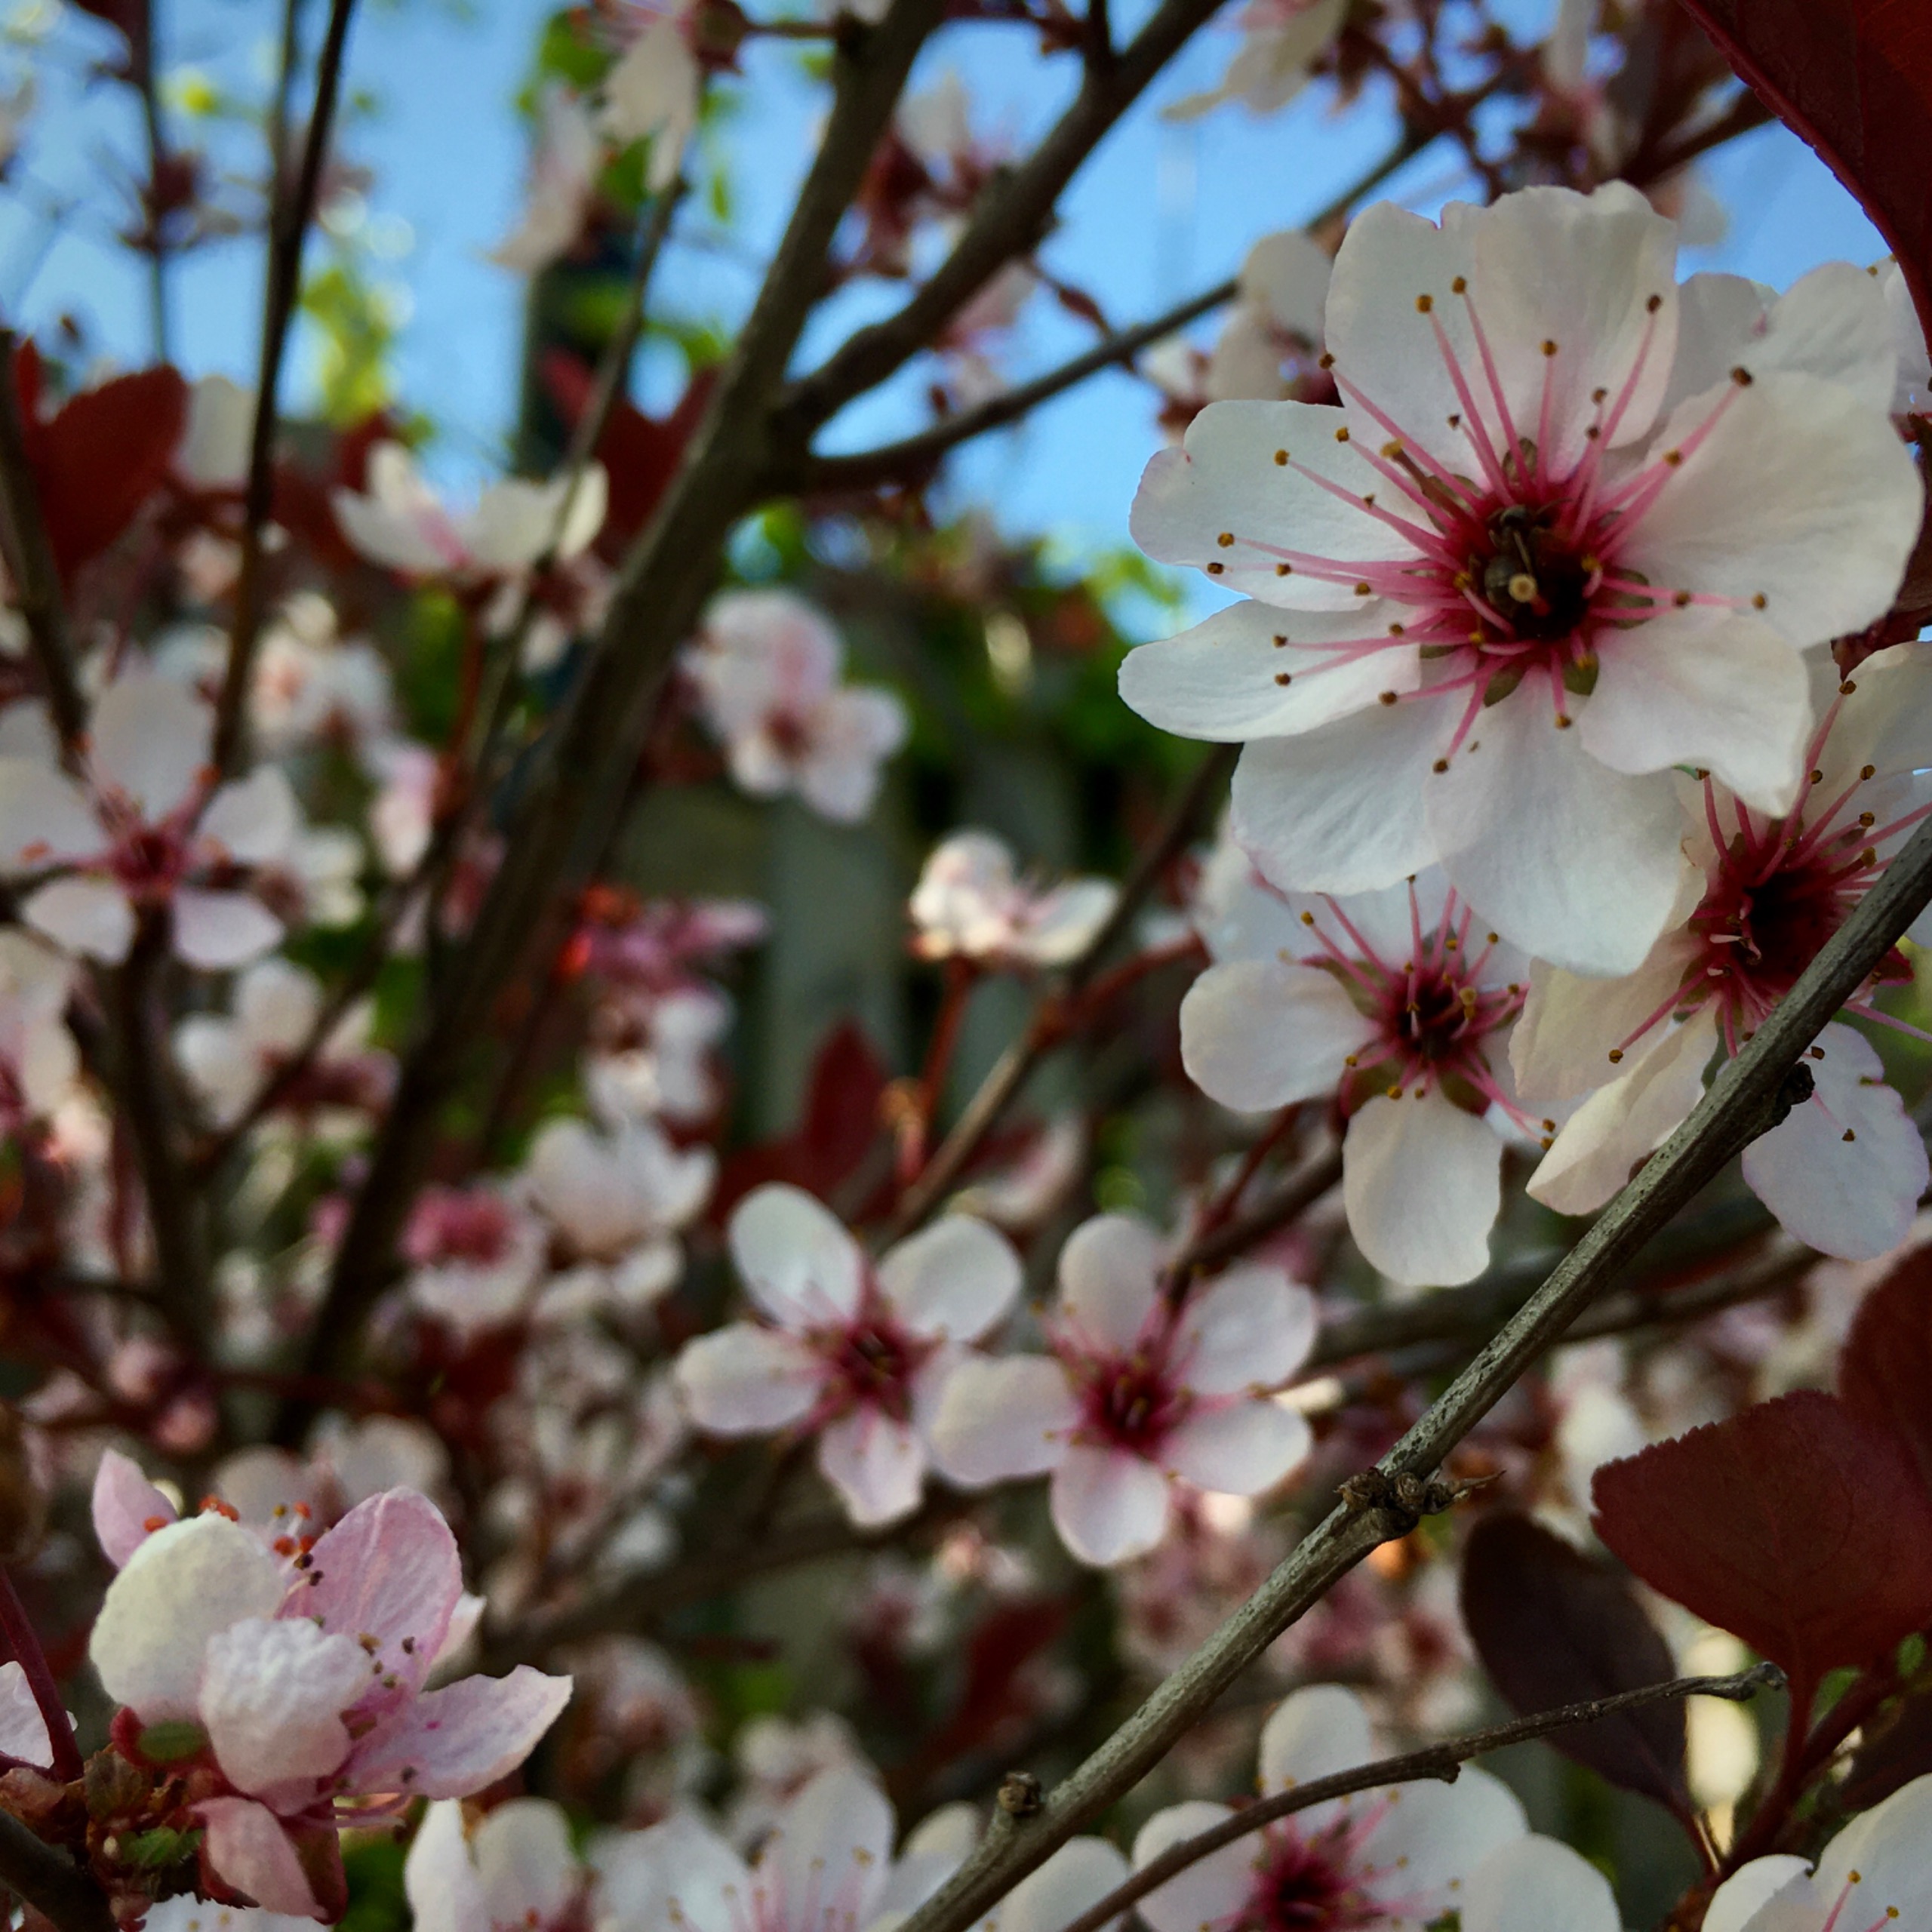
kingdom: Plantae
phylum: Tracheophyta
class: Magnoliopsida
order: Rosales
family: Rosaceae
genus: Prunus
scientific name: Prunus cerasifera
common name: Mirabel
